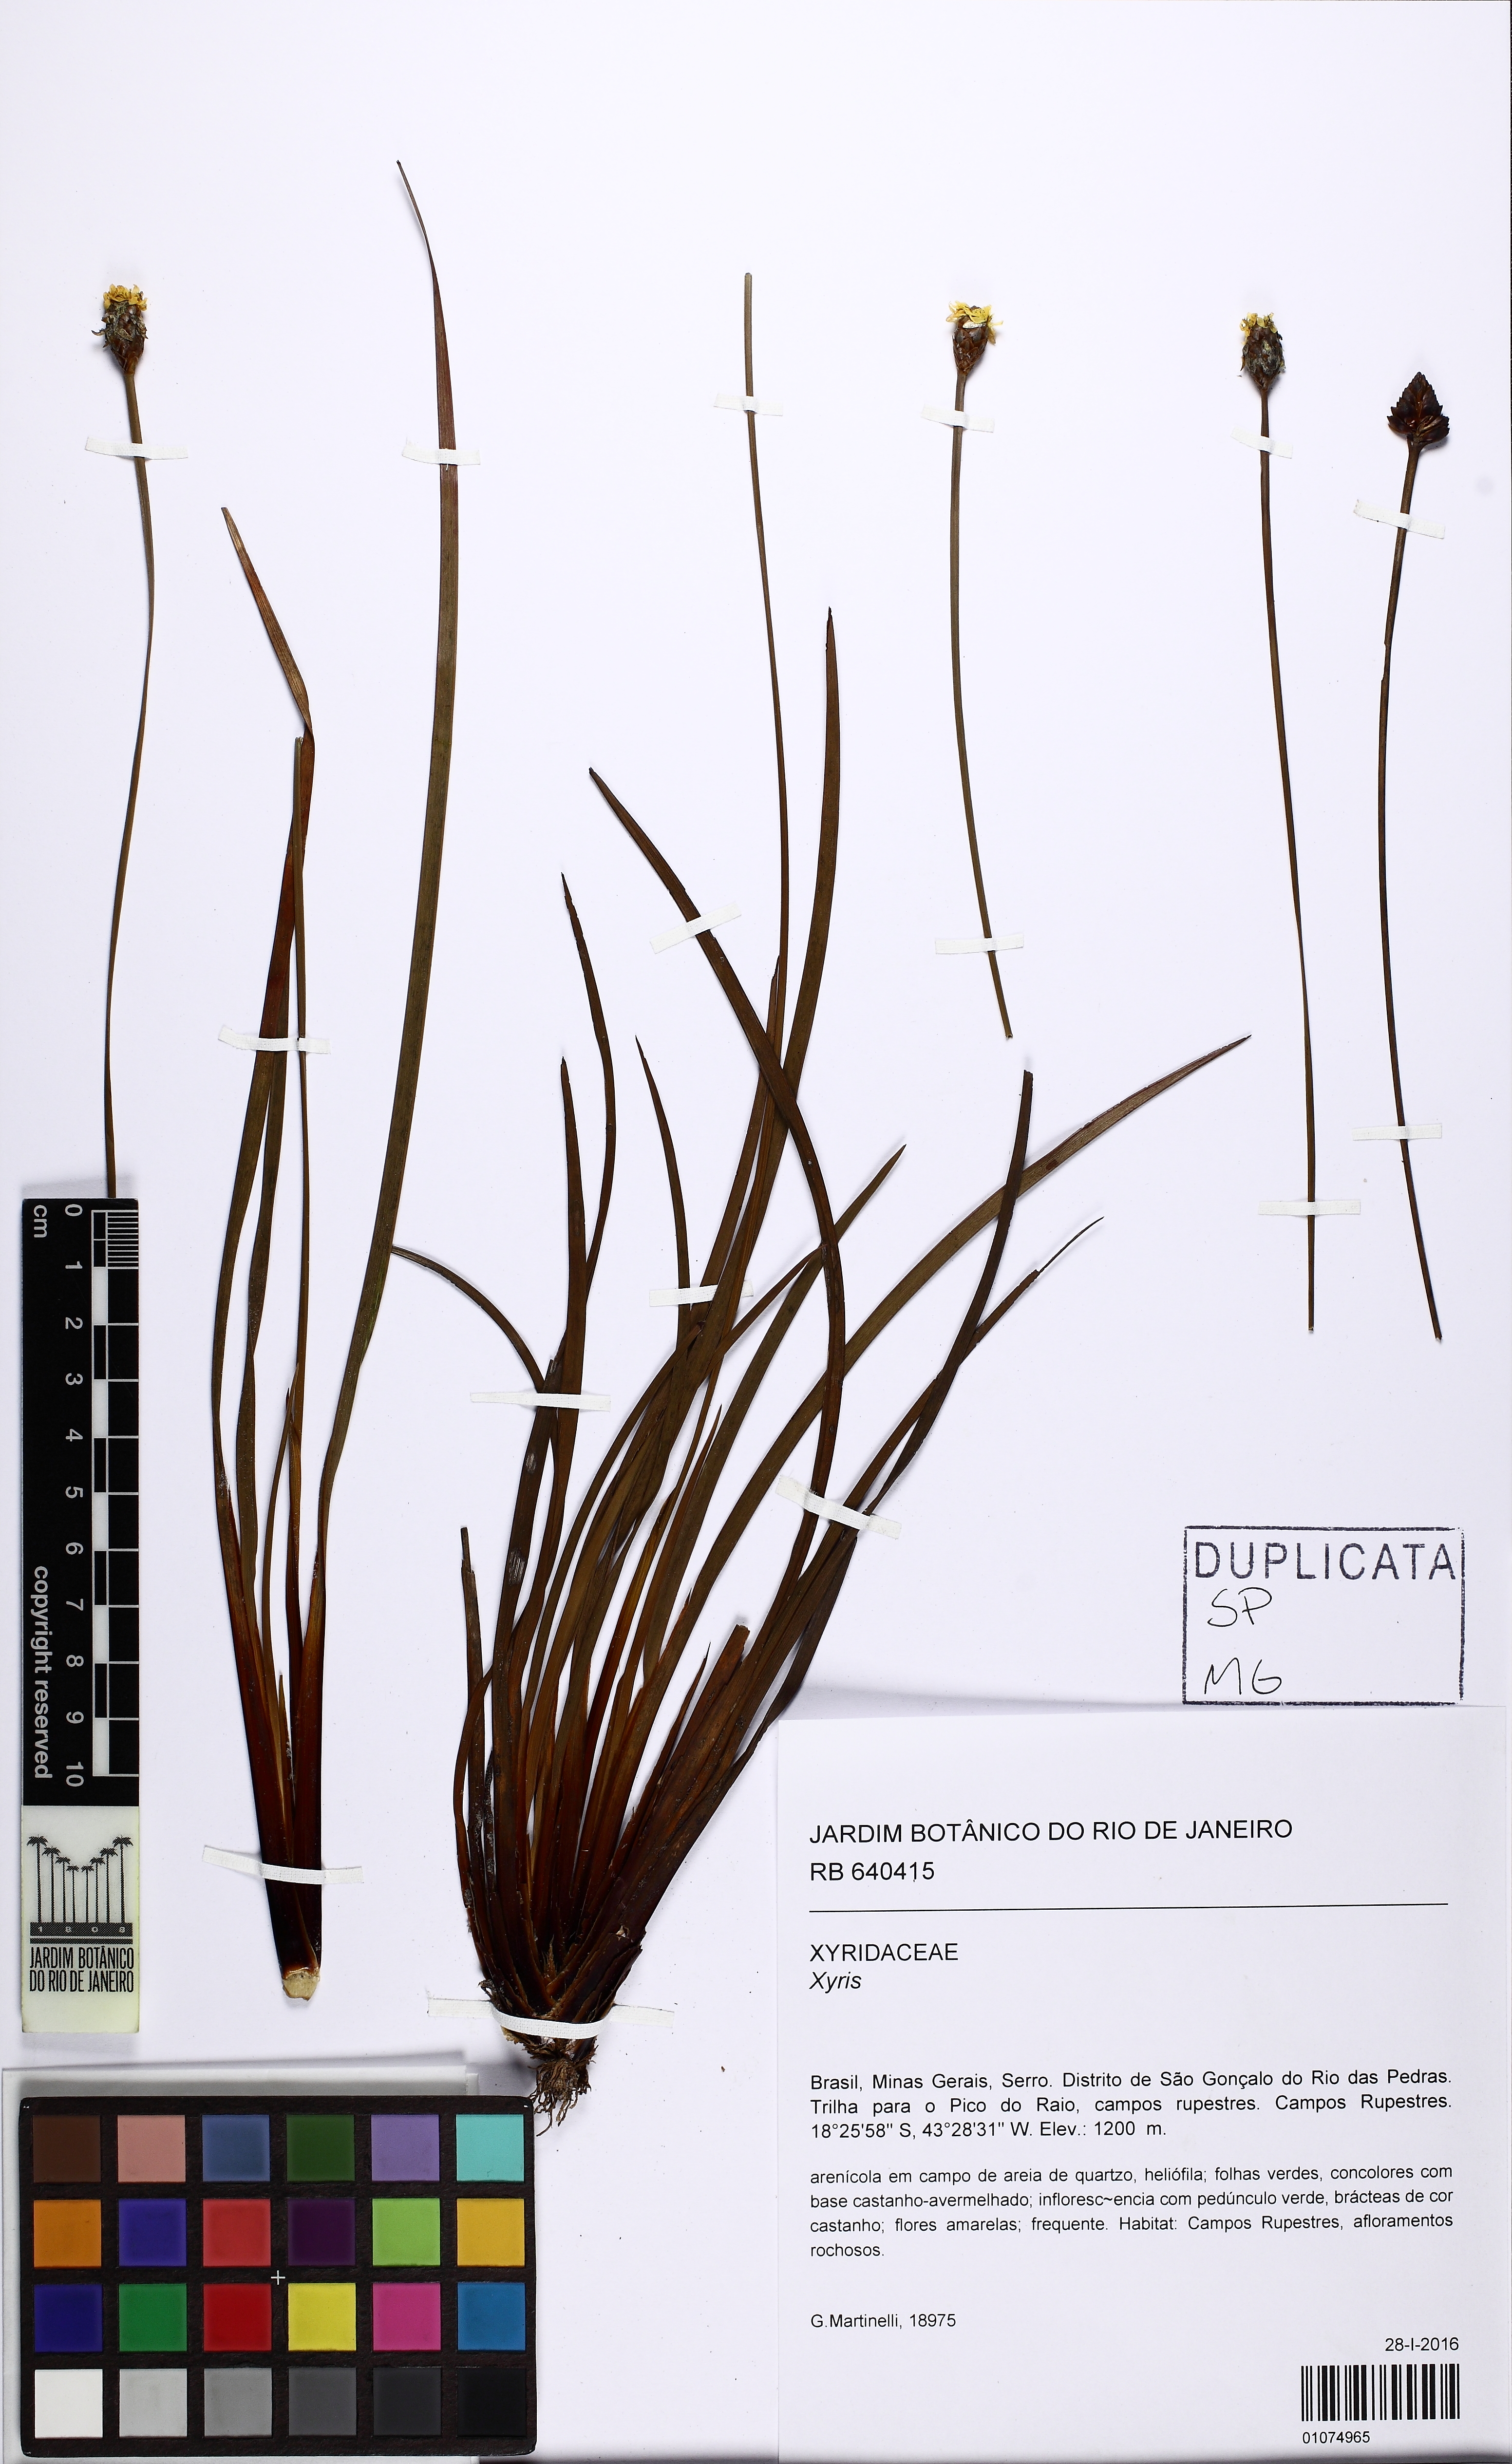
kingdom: Plantae
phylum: Tracheophyta
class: Liliopsida
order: Poales
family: Xyridaceae
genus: Xyris
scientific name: Xyris
